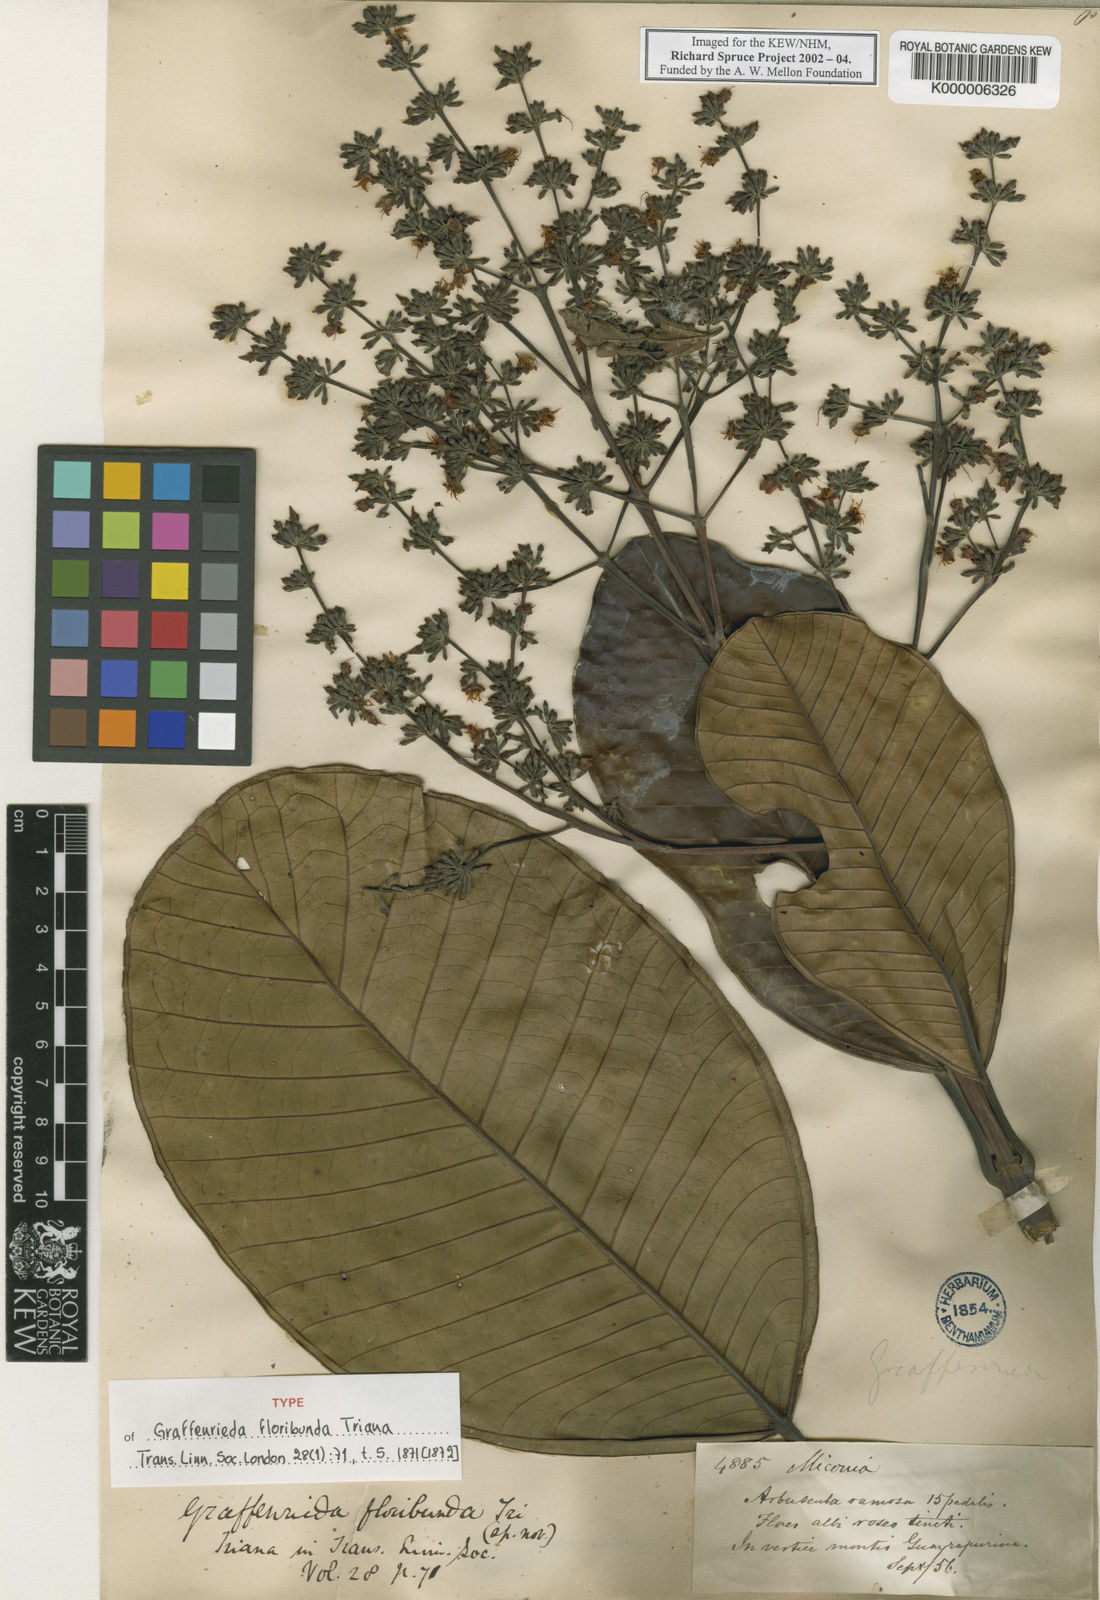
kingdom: Plantae
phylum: Tracheophyta
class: Magnoliopsida
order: Myrtales
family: Melastomataceae
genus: Graffenrieda
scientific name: Graffenrieda miconioides
